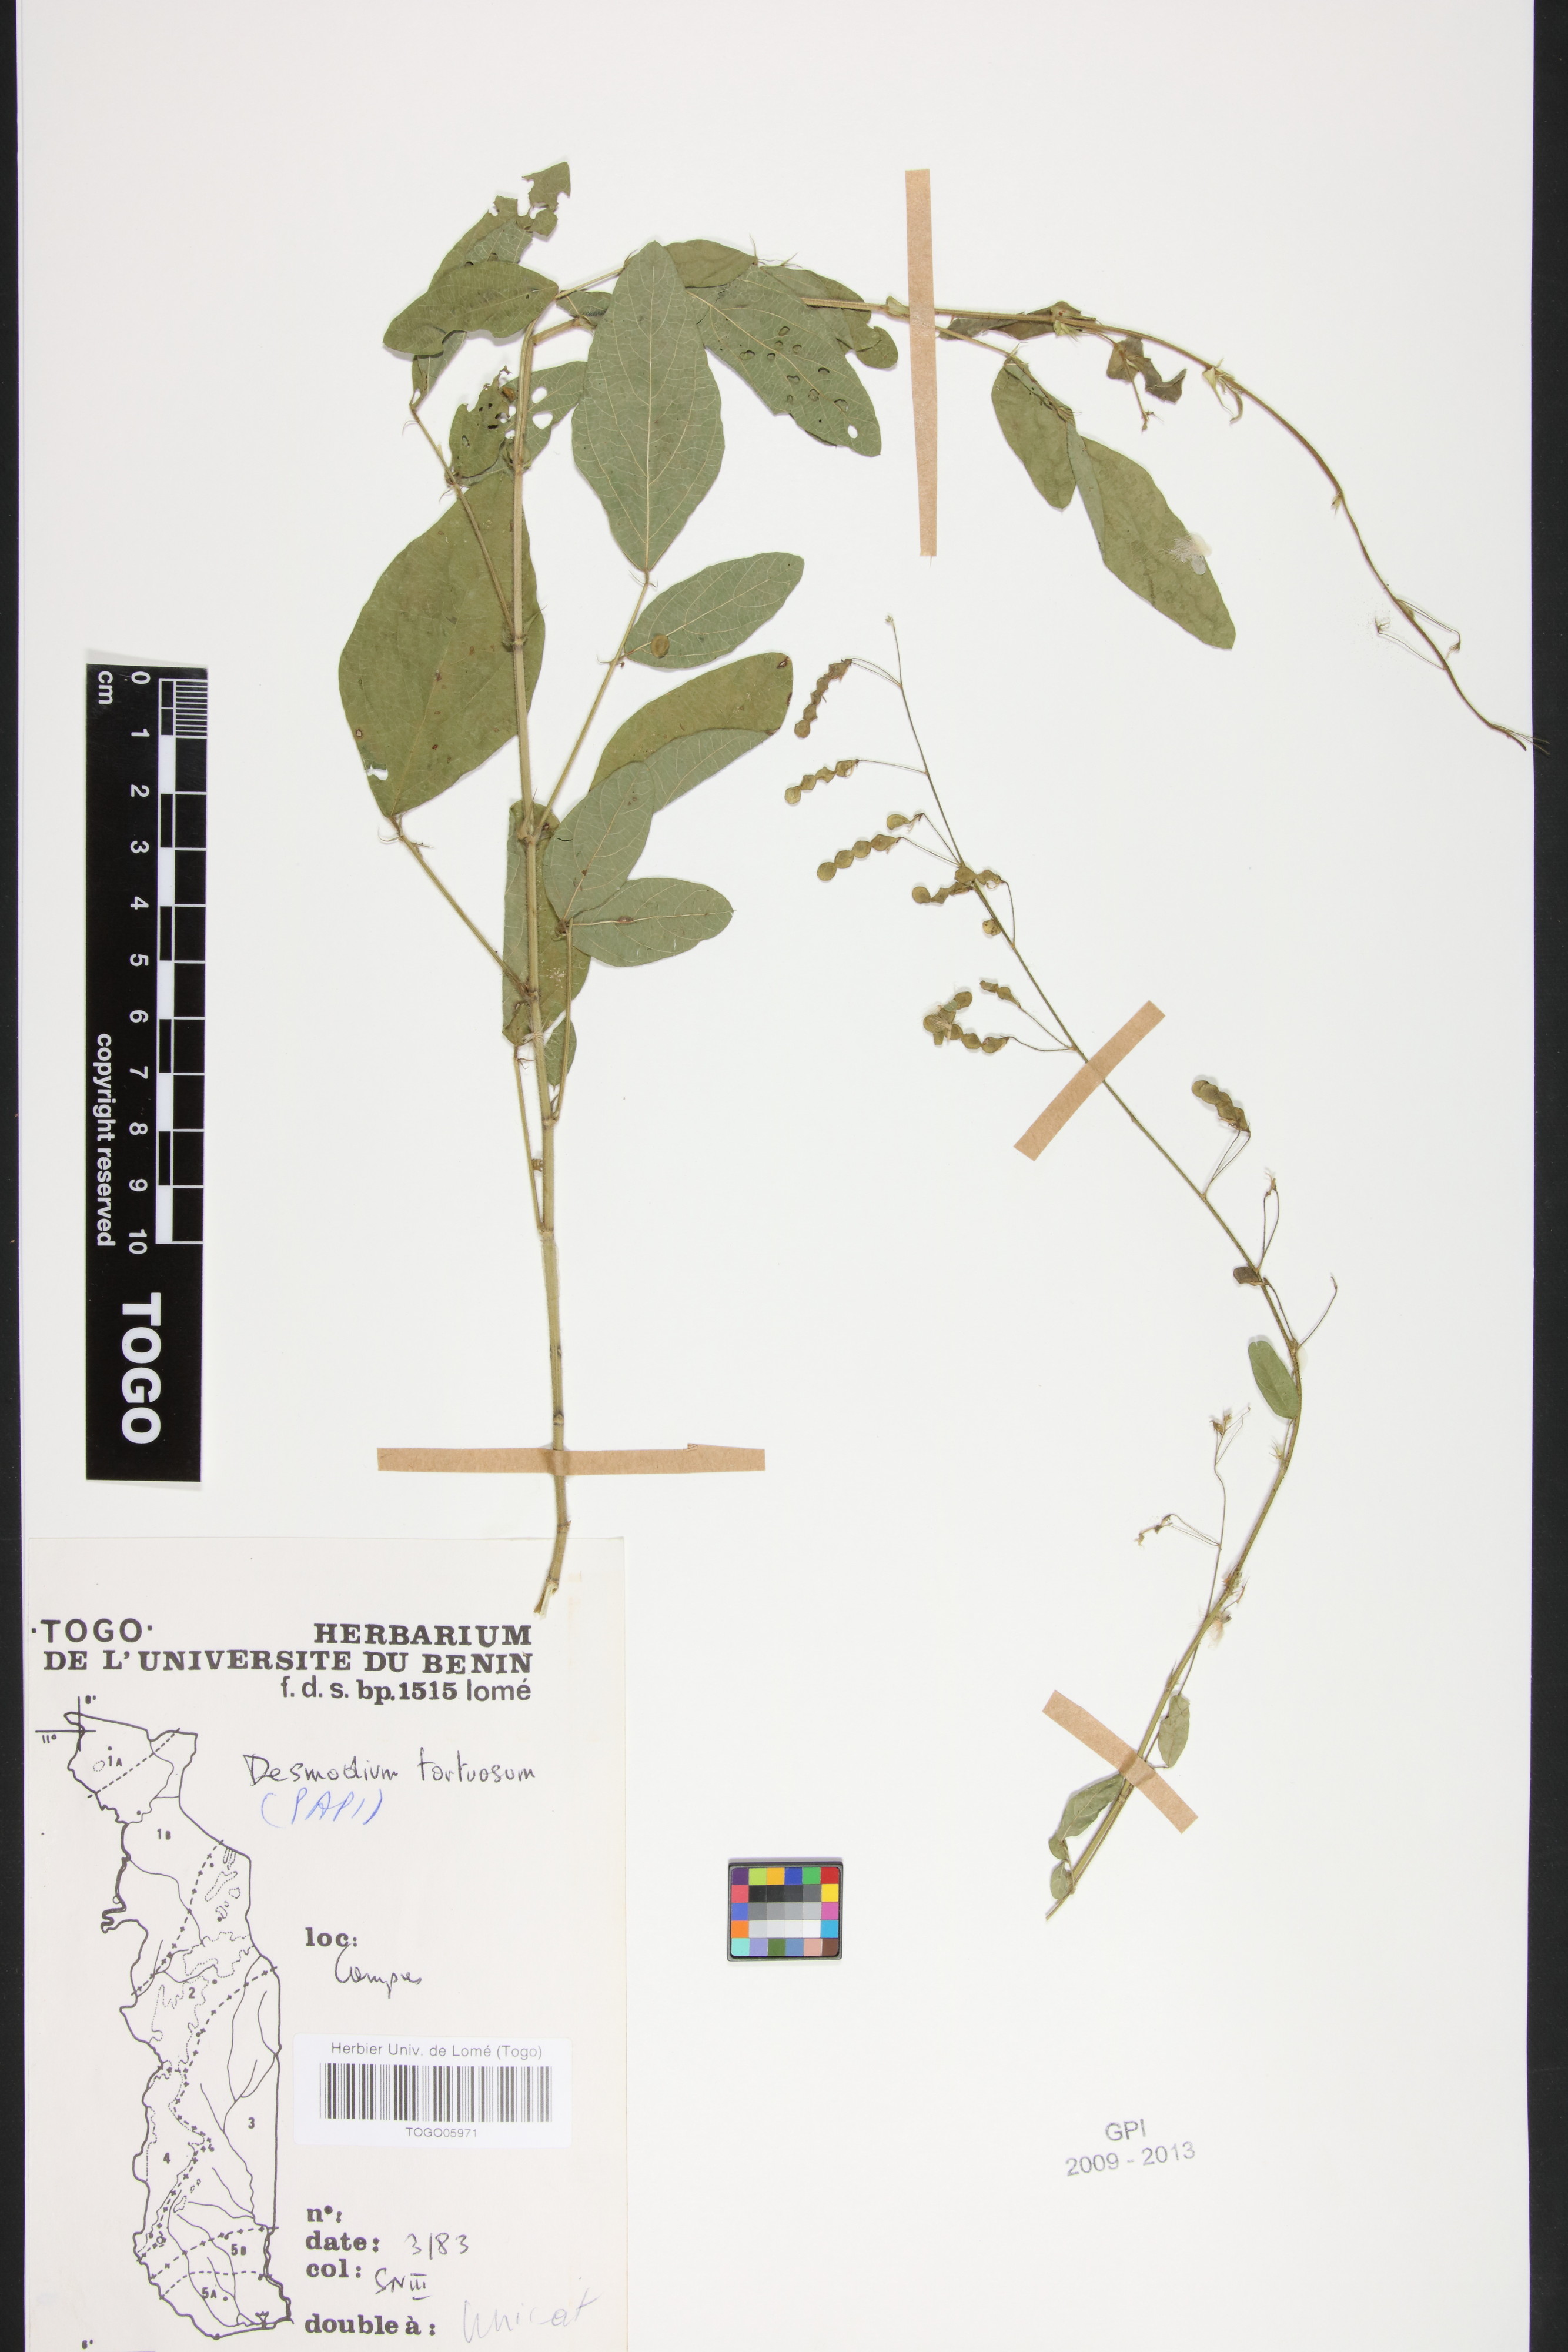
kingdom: Plantae
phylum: Tracheophyta
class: Magnoliopsida
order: Fabales
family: Fabaceae
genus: Desmodium
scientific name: Desmodium tortuosum
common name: Dixie ticktrefoil
